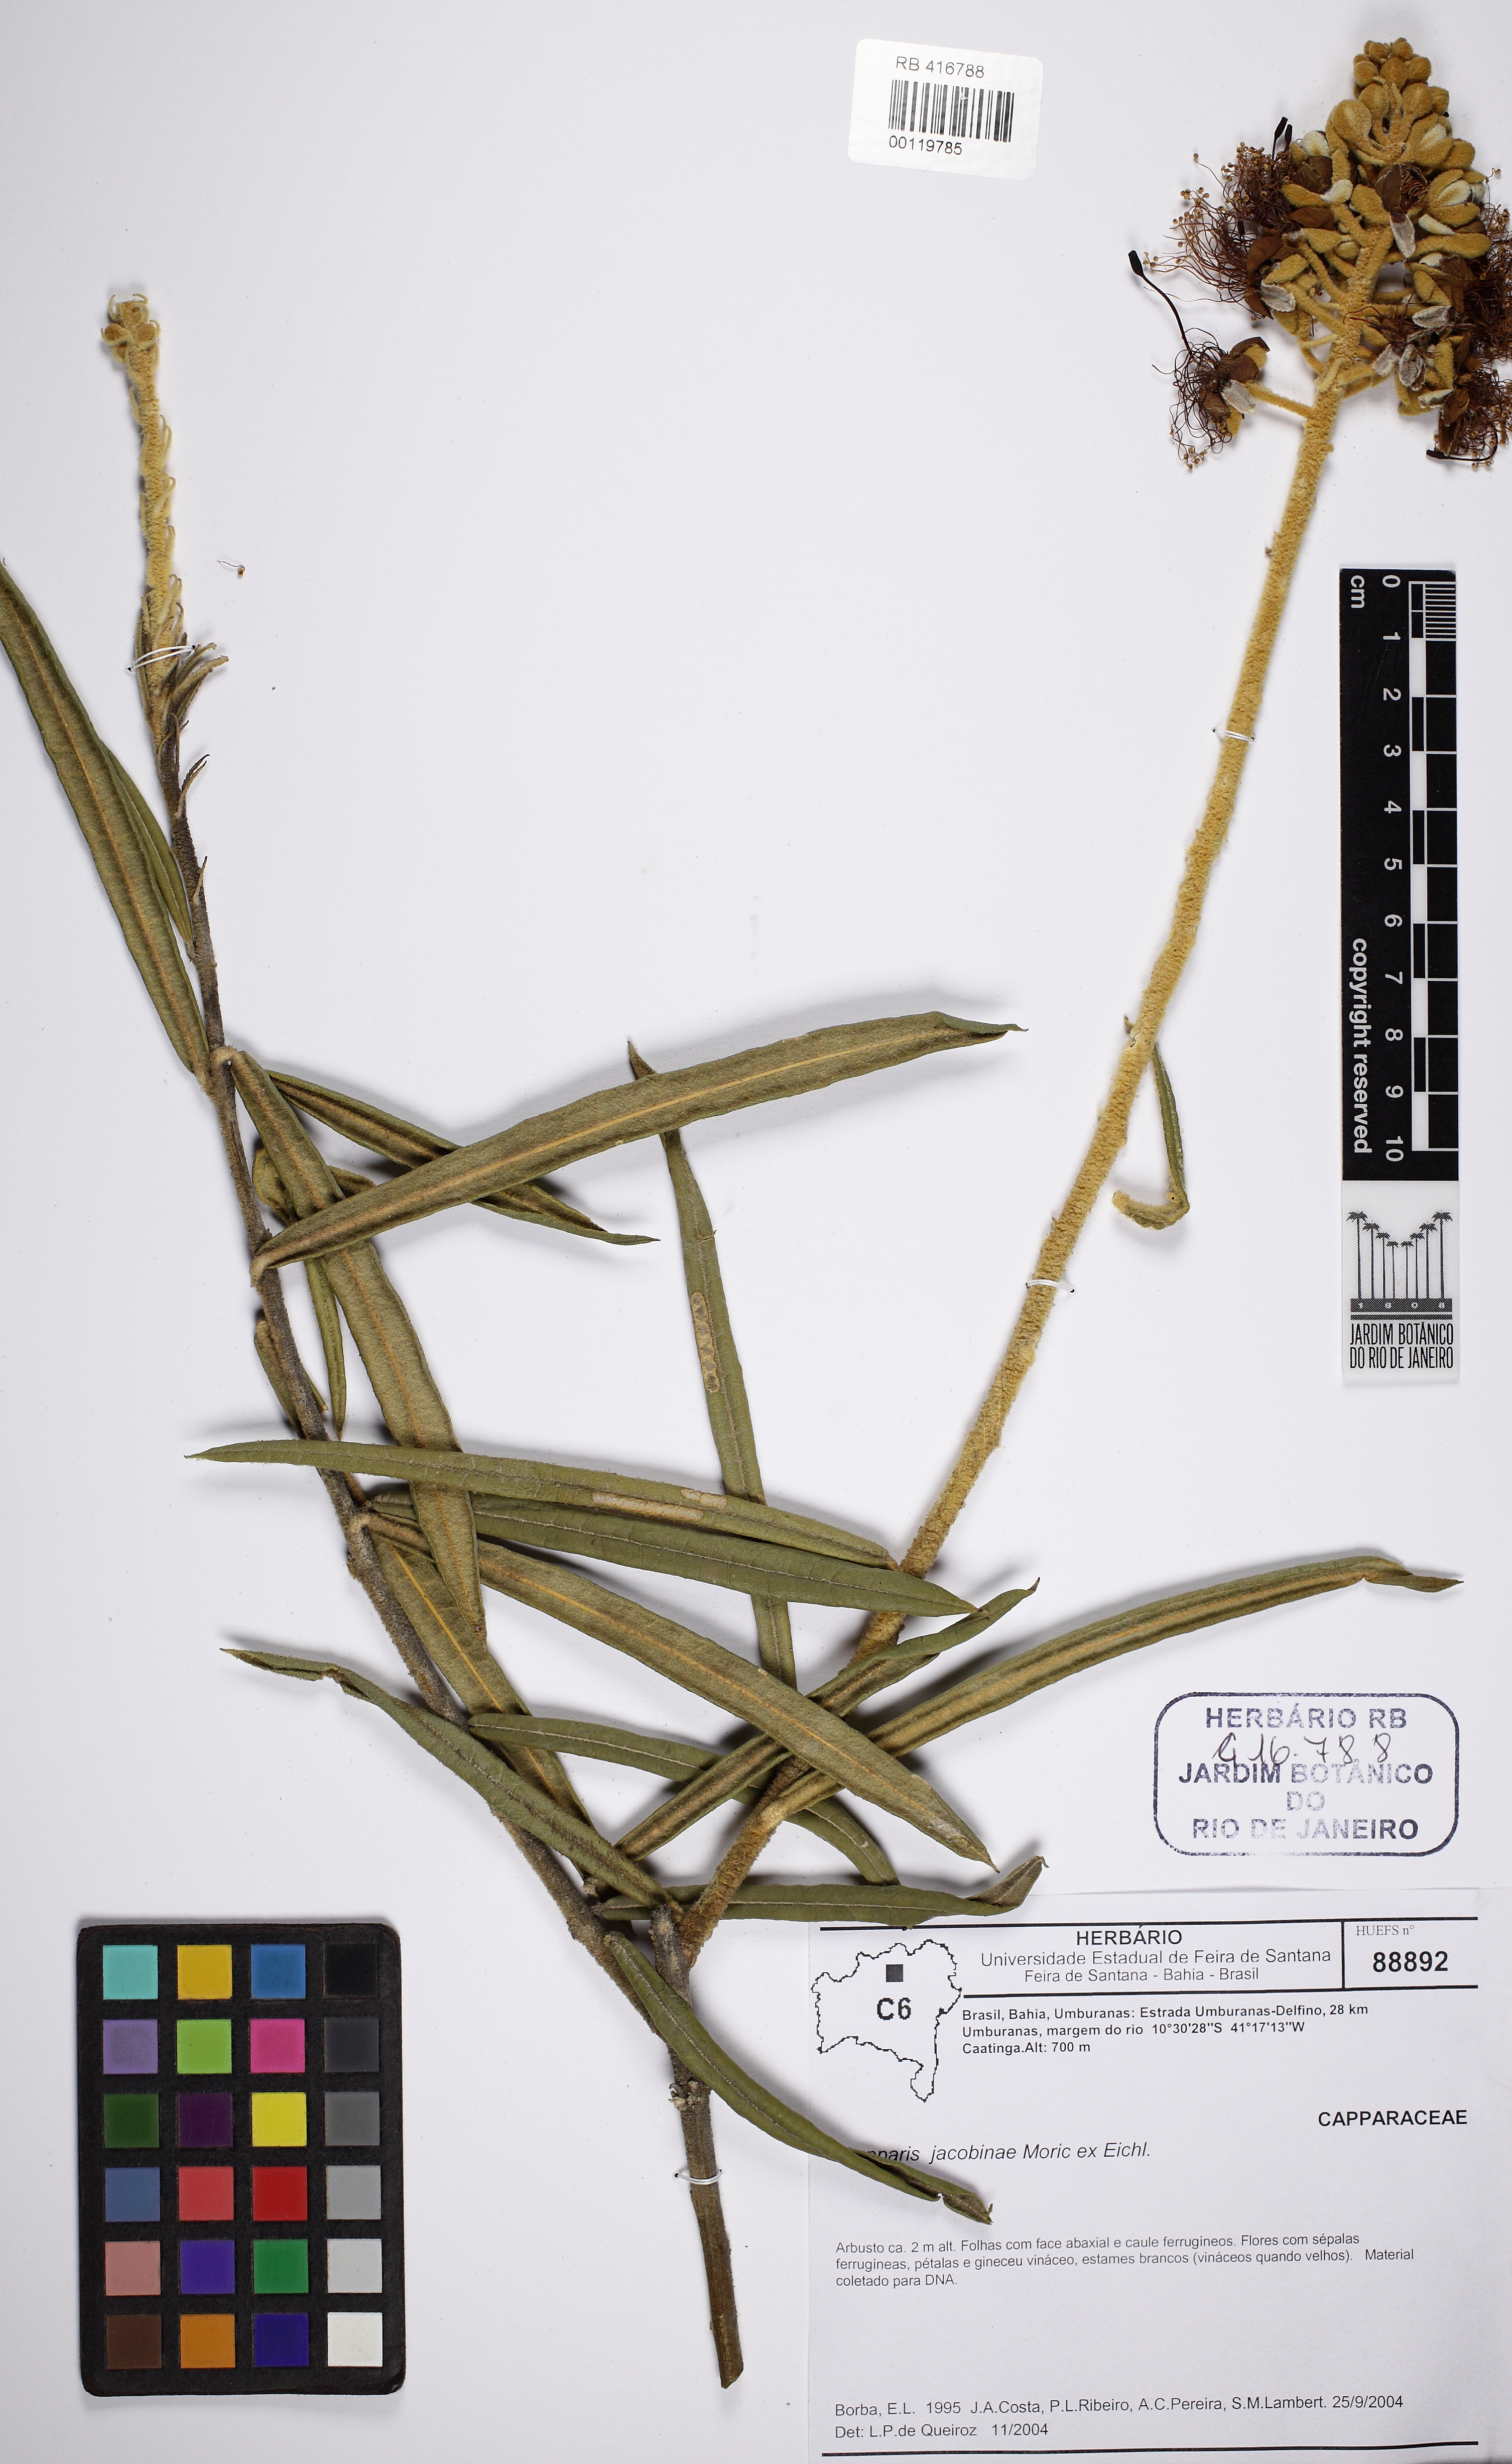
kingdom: Plantae
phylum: Tracheophyta
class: Magnoliopsida
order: Brassicales
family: Capparaceae
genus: Neocalyptrocalyx
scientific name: Neocalyptrocalyx longifolium
